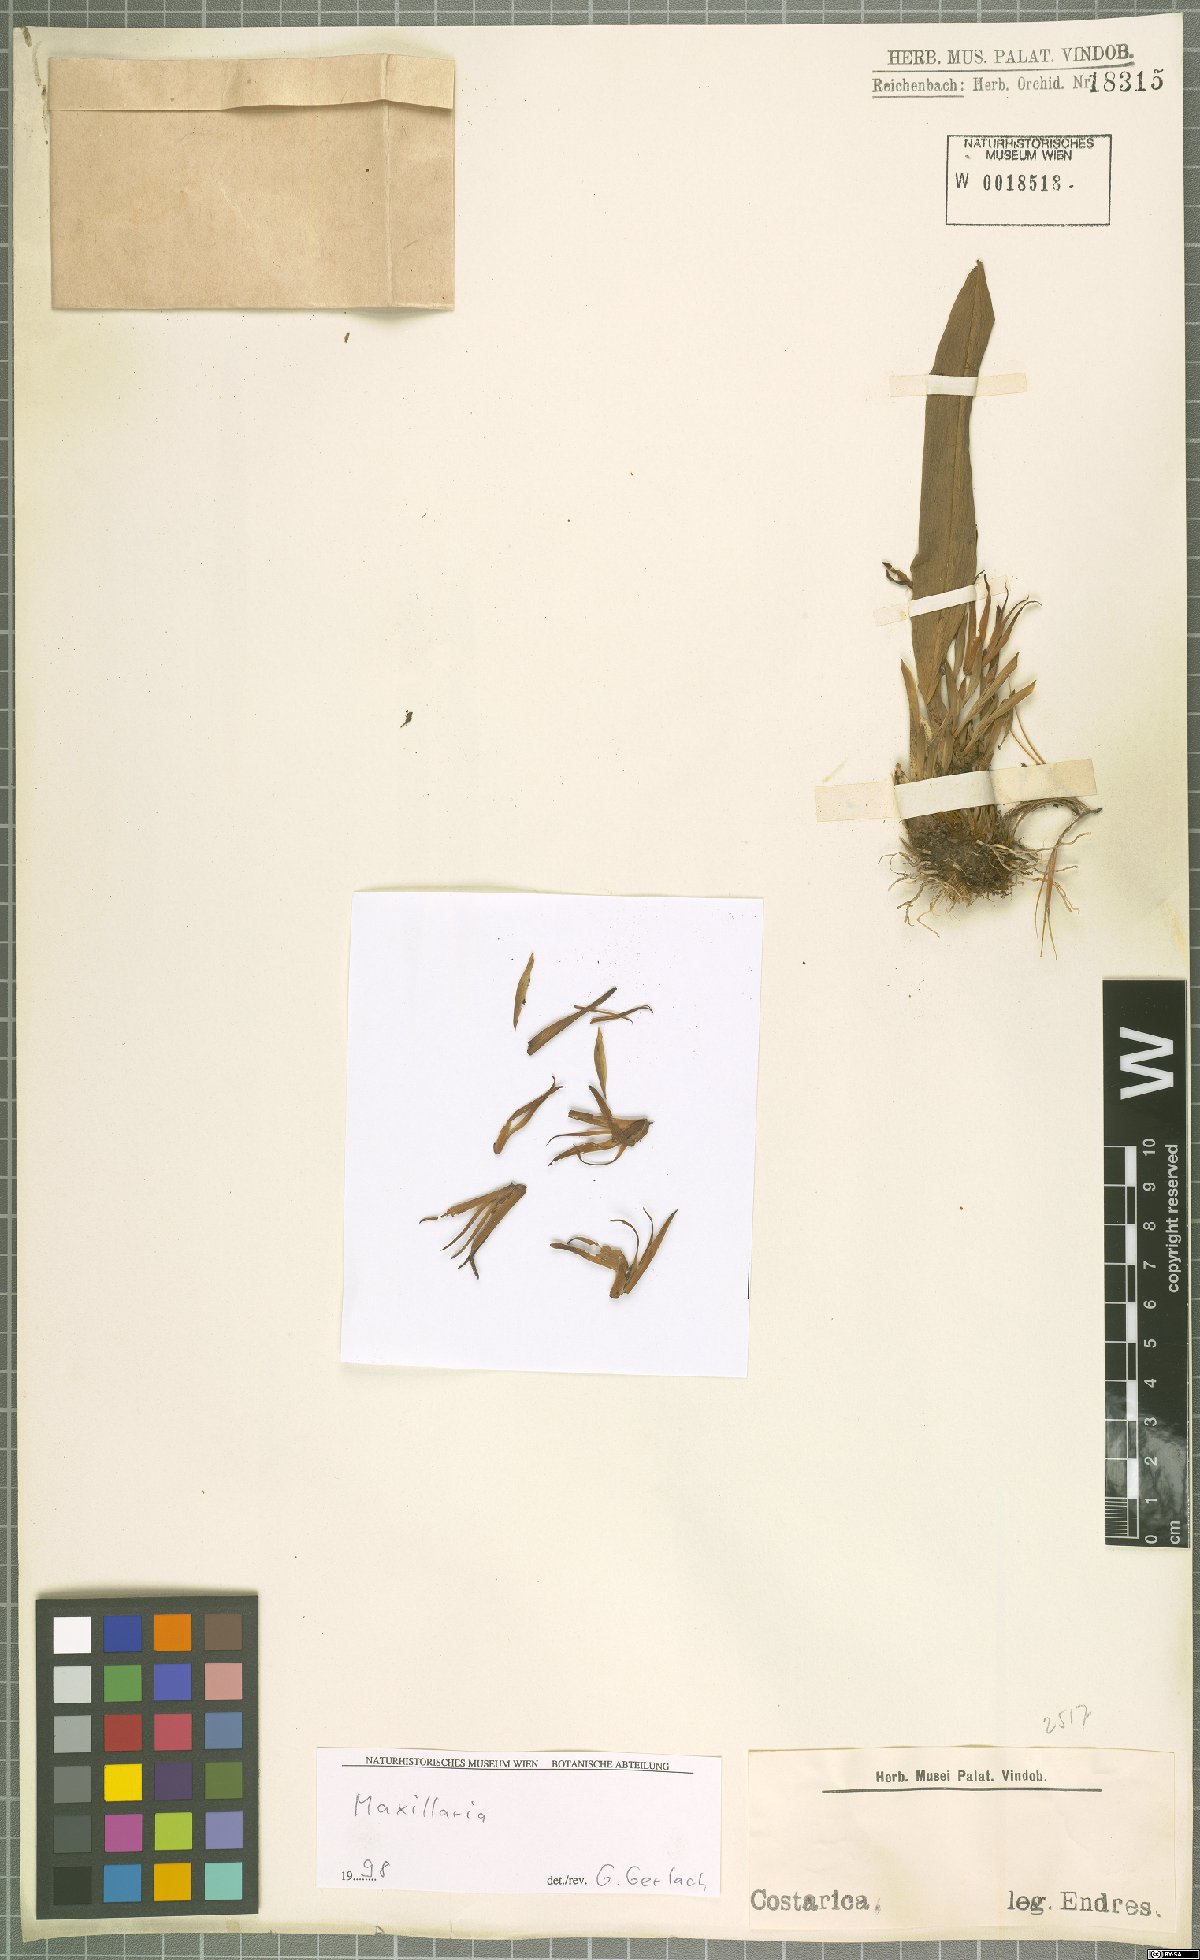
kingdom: Plantae
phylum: Tracheophyta
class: Liliopsida
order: Asparagales
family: Orchidaceae
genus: Maxillaria
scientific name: Maxillaria
